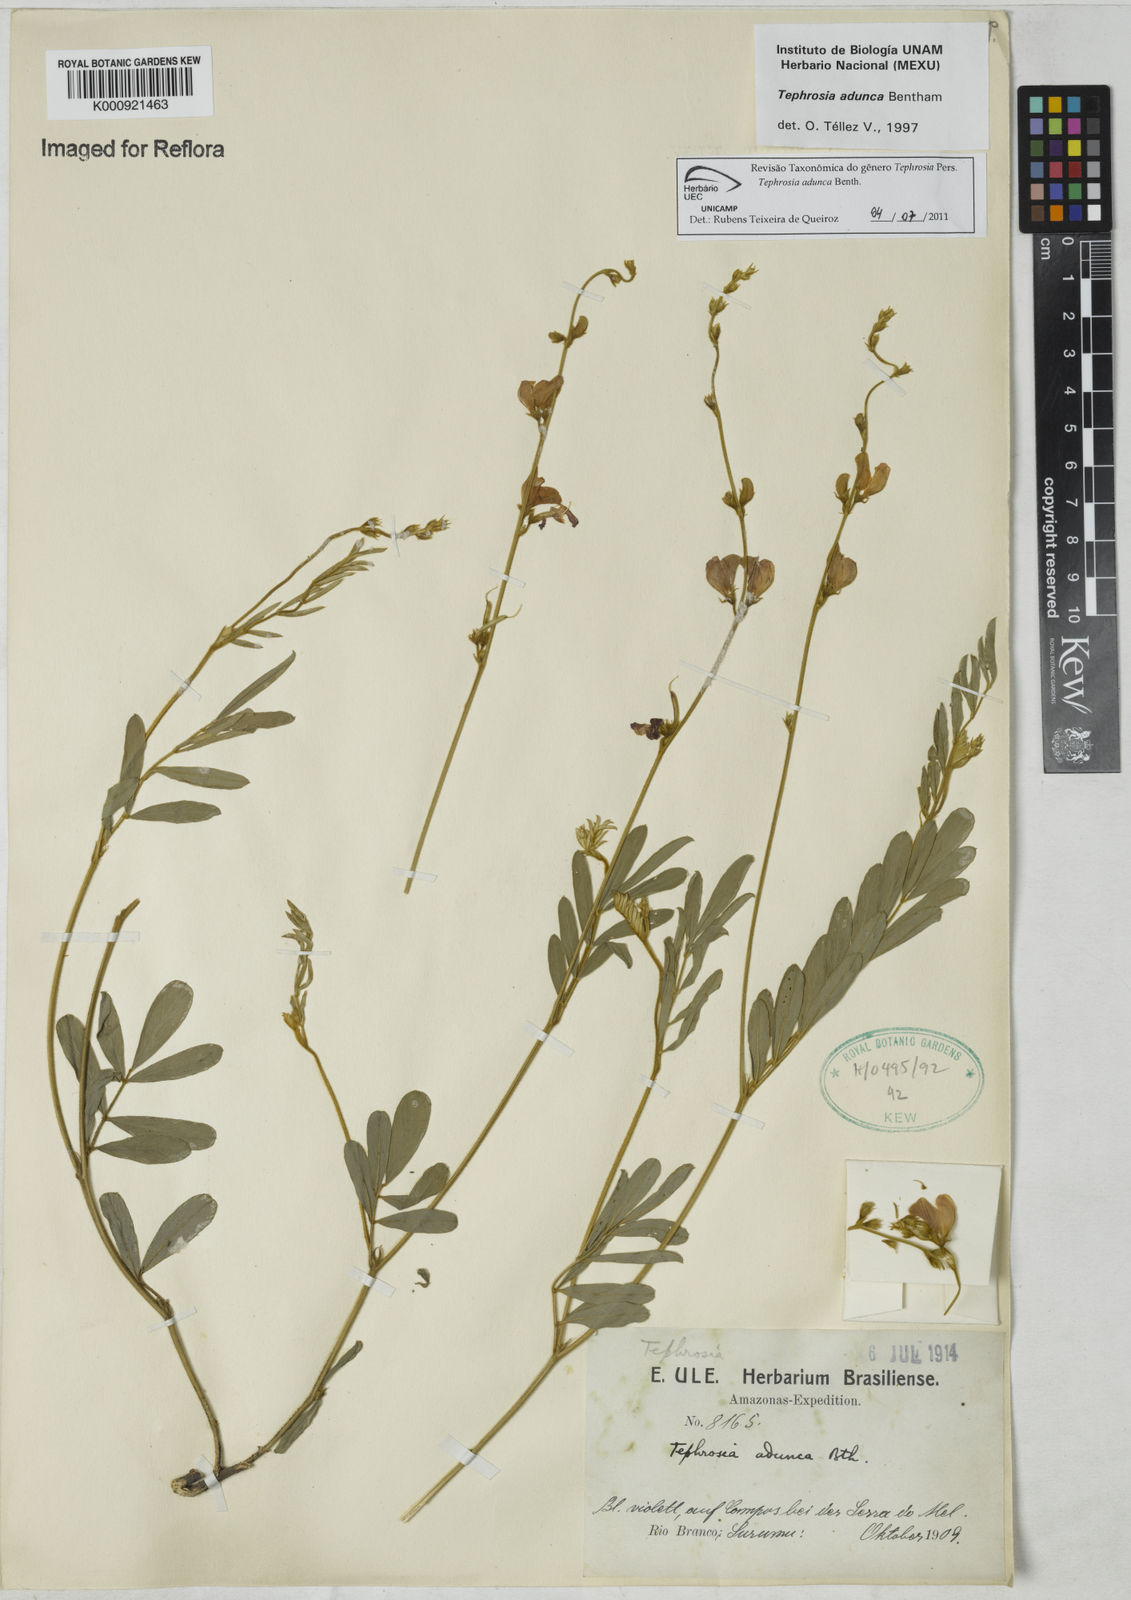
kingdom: Plantae
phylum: Tracheophyta
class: Magnoliopsida
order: Fabales
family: Fabaceae
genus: Tephrosia
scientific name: Tephrosia adunca
